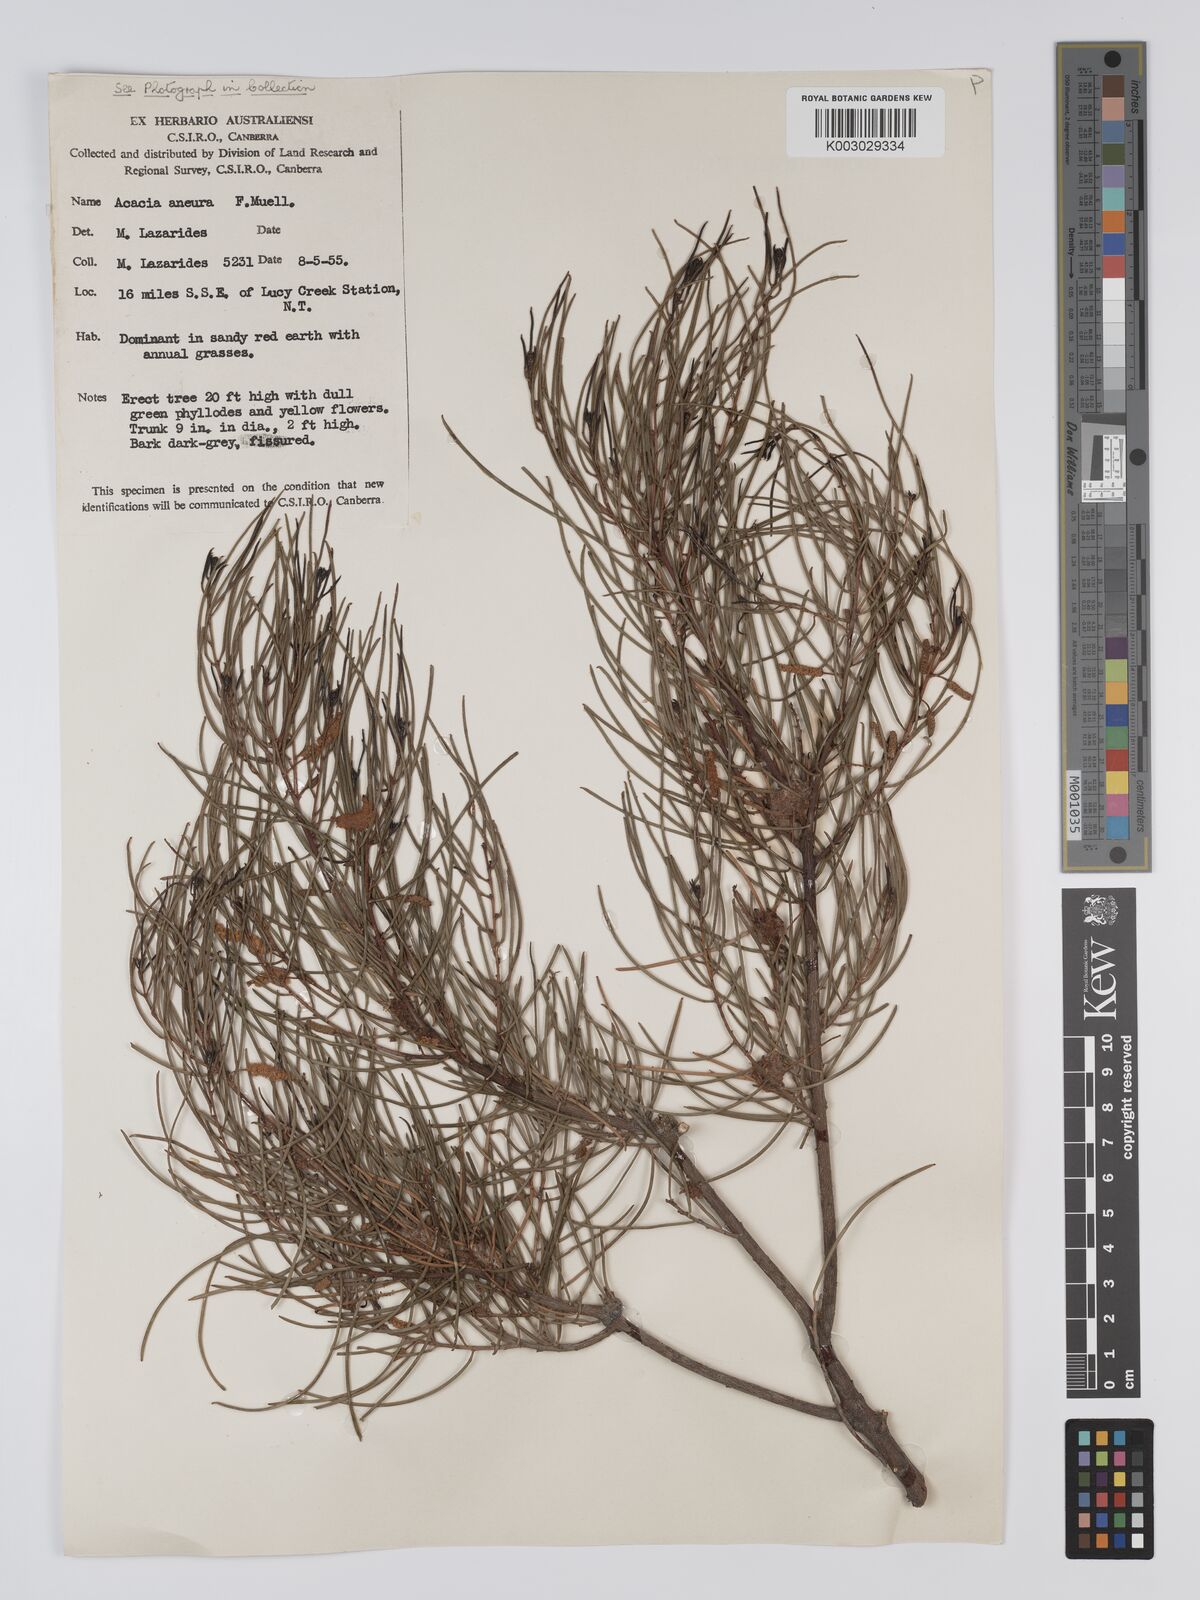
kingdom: Plantae
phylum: Tracheophyta
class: Magnoliopsida
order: Fabales
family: Fabaceae
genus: Acacia
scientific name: Acacia aneura
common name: Mulga
